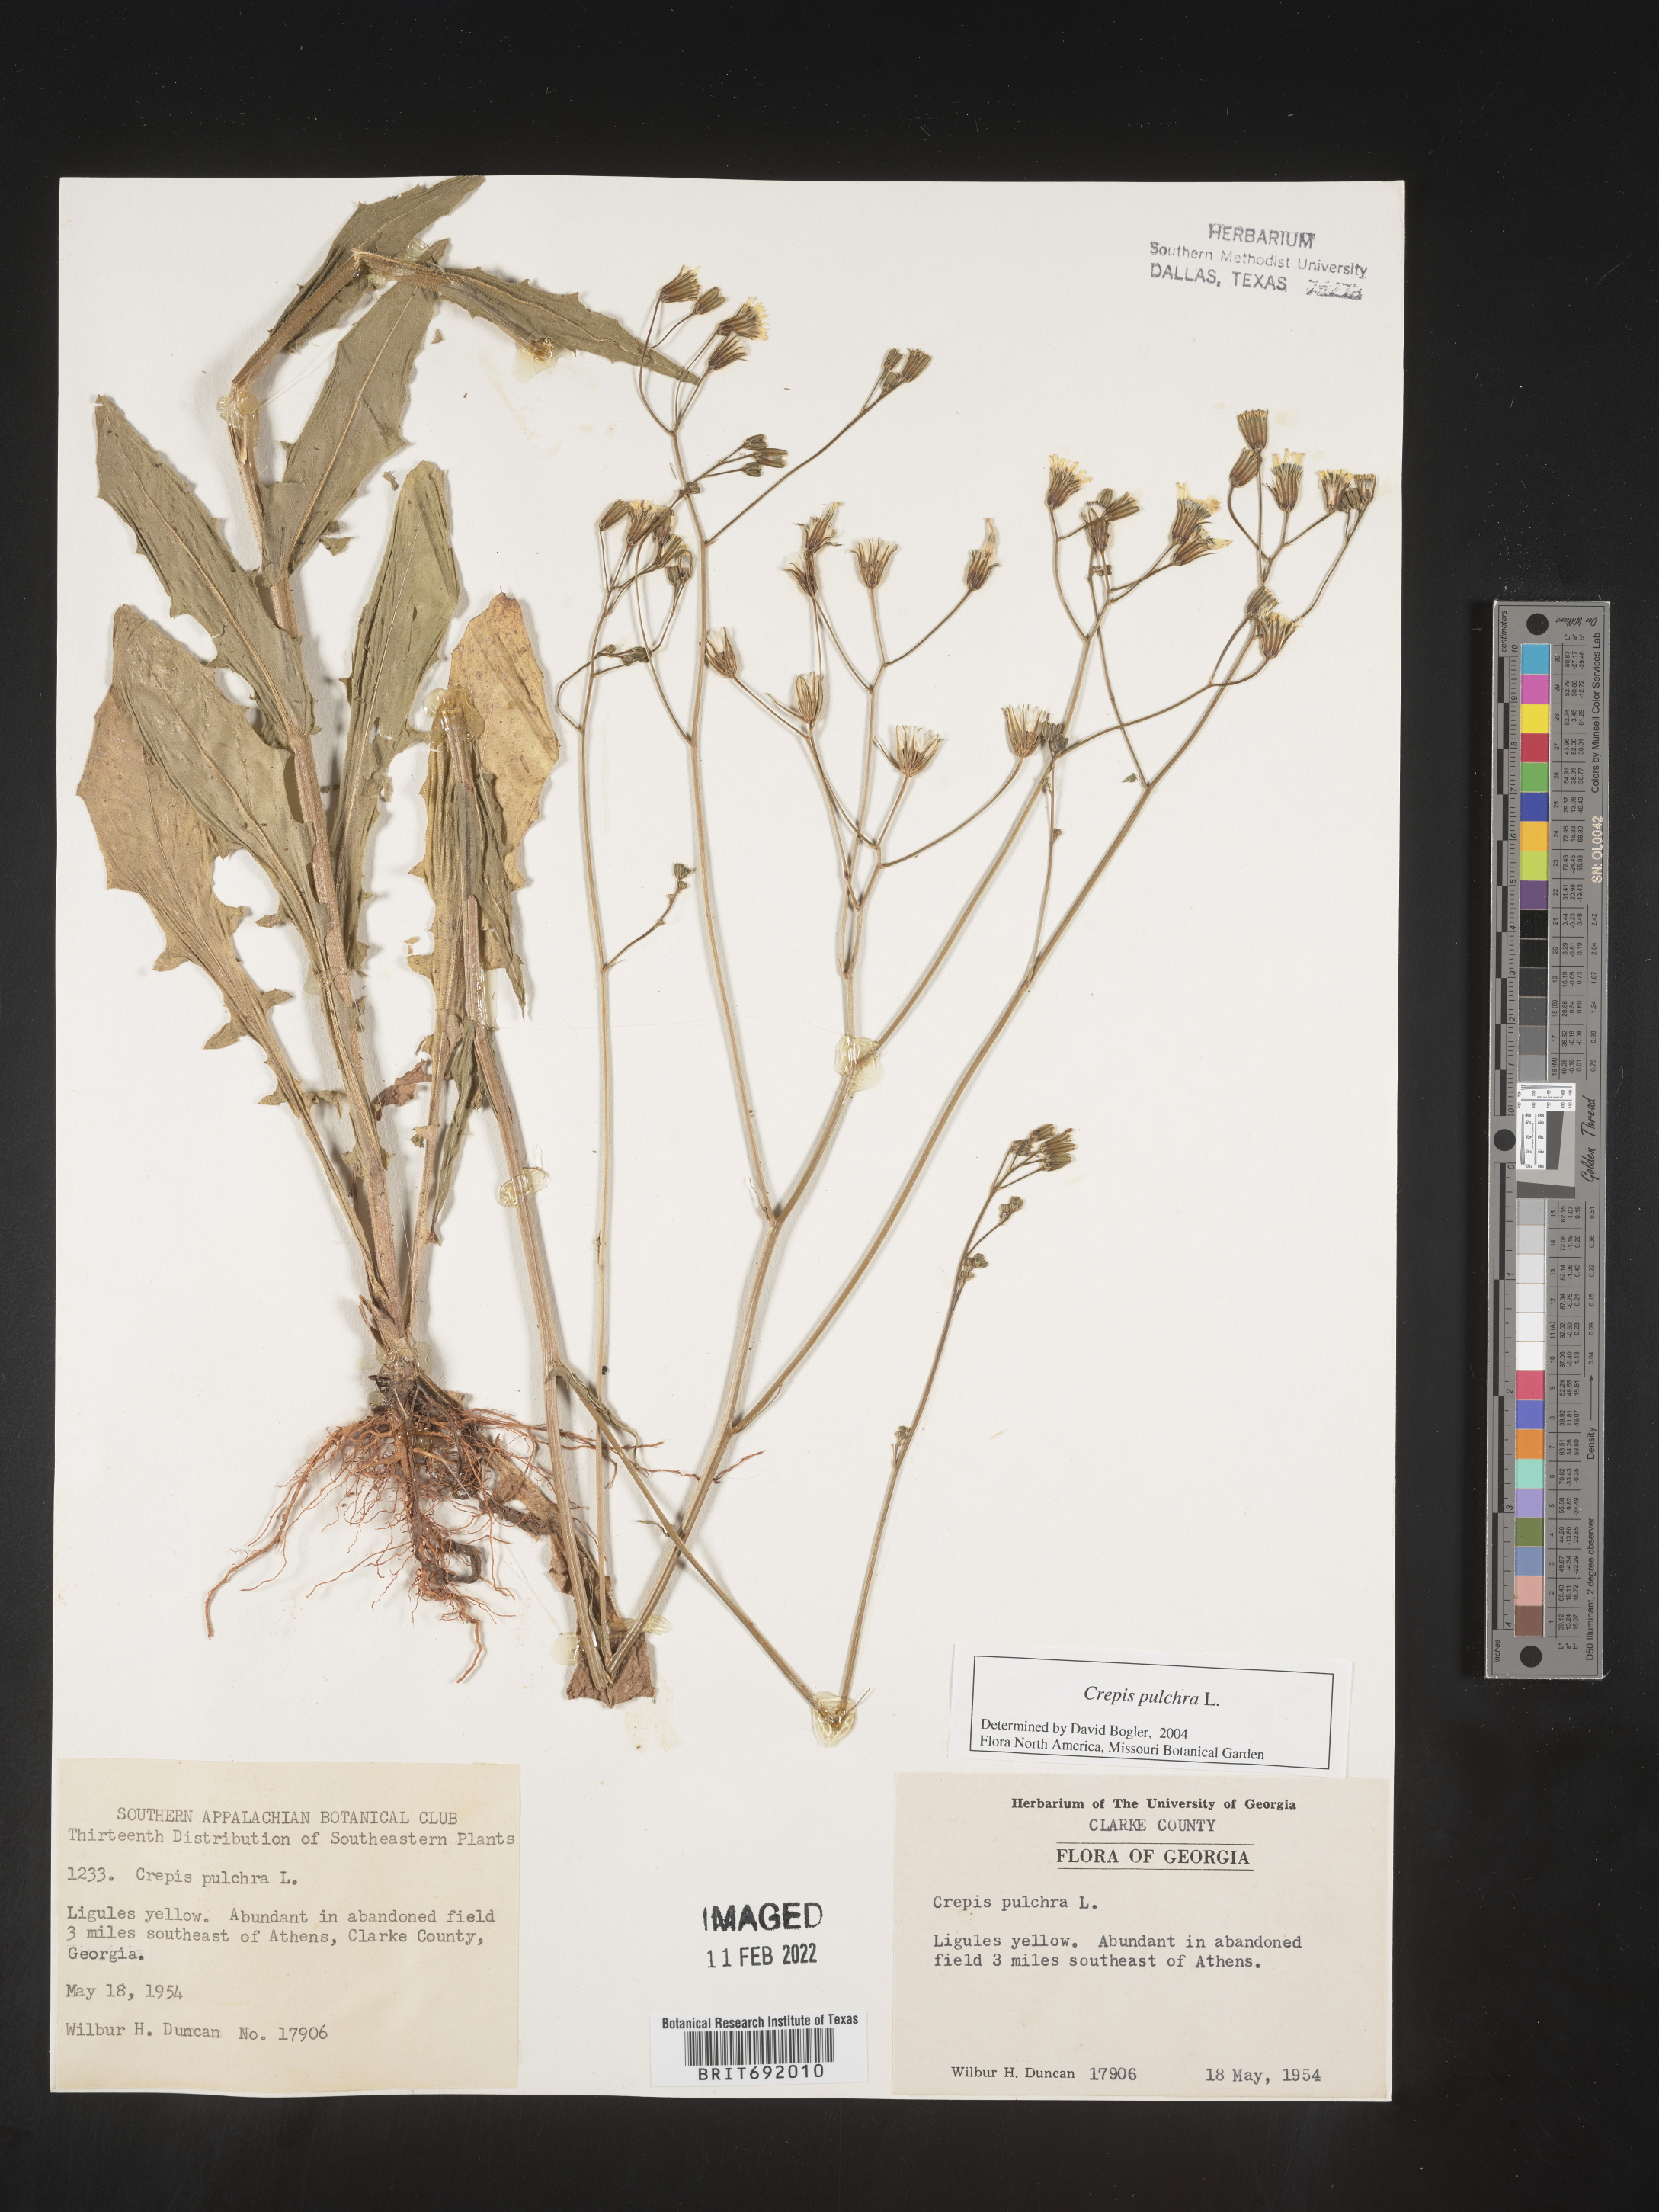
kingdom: Plantae
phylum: Tracheophyta
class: Magnoliopsida
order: Asterales
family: Asteraceae
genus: Crepis
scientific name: Crepis pulchra
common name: Hawk's-beard
